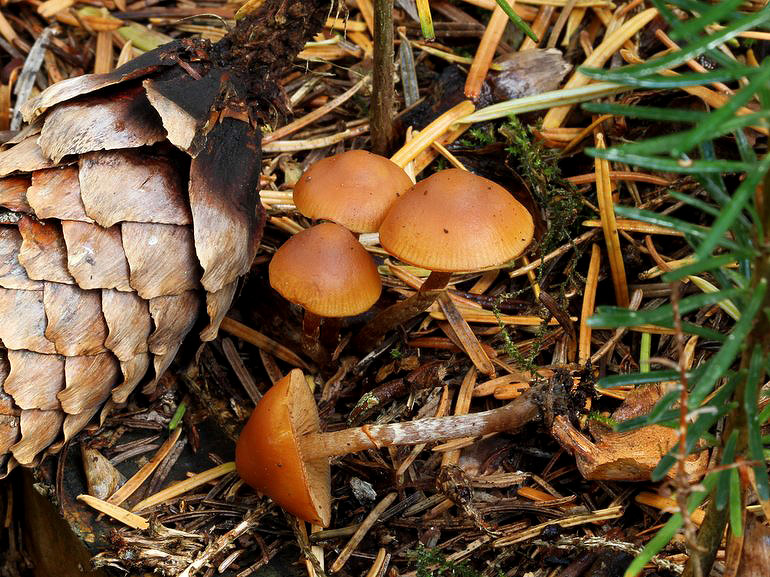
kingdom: Fungi
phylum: Basidiomycota
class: Agaricomycetes
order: Agaricales
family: Hymenogastraceae
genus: Galerina
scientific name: Galerina marginata
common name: randbæltet hjelmhat
